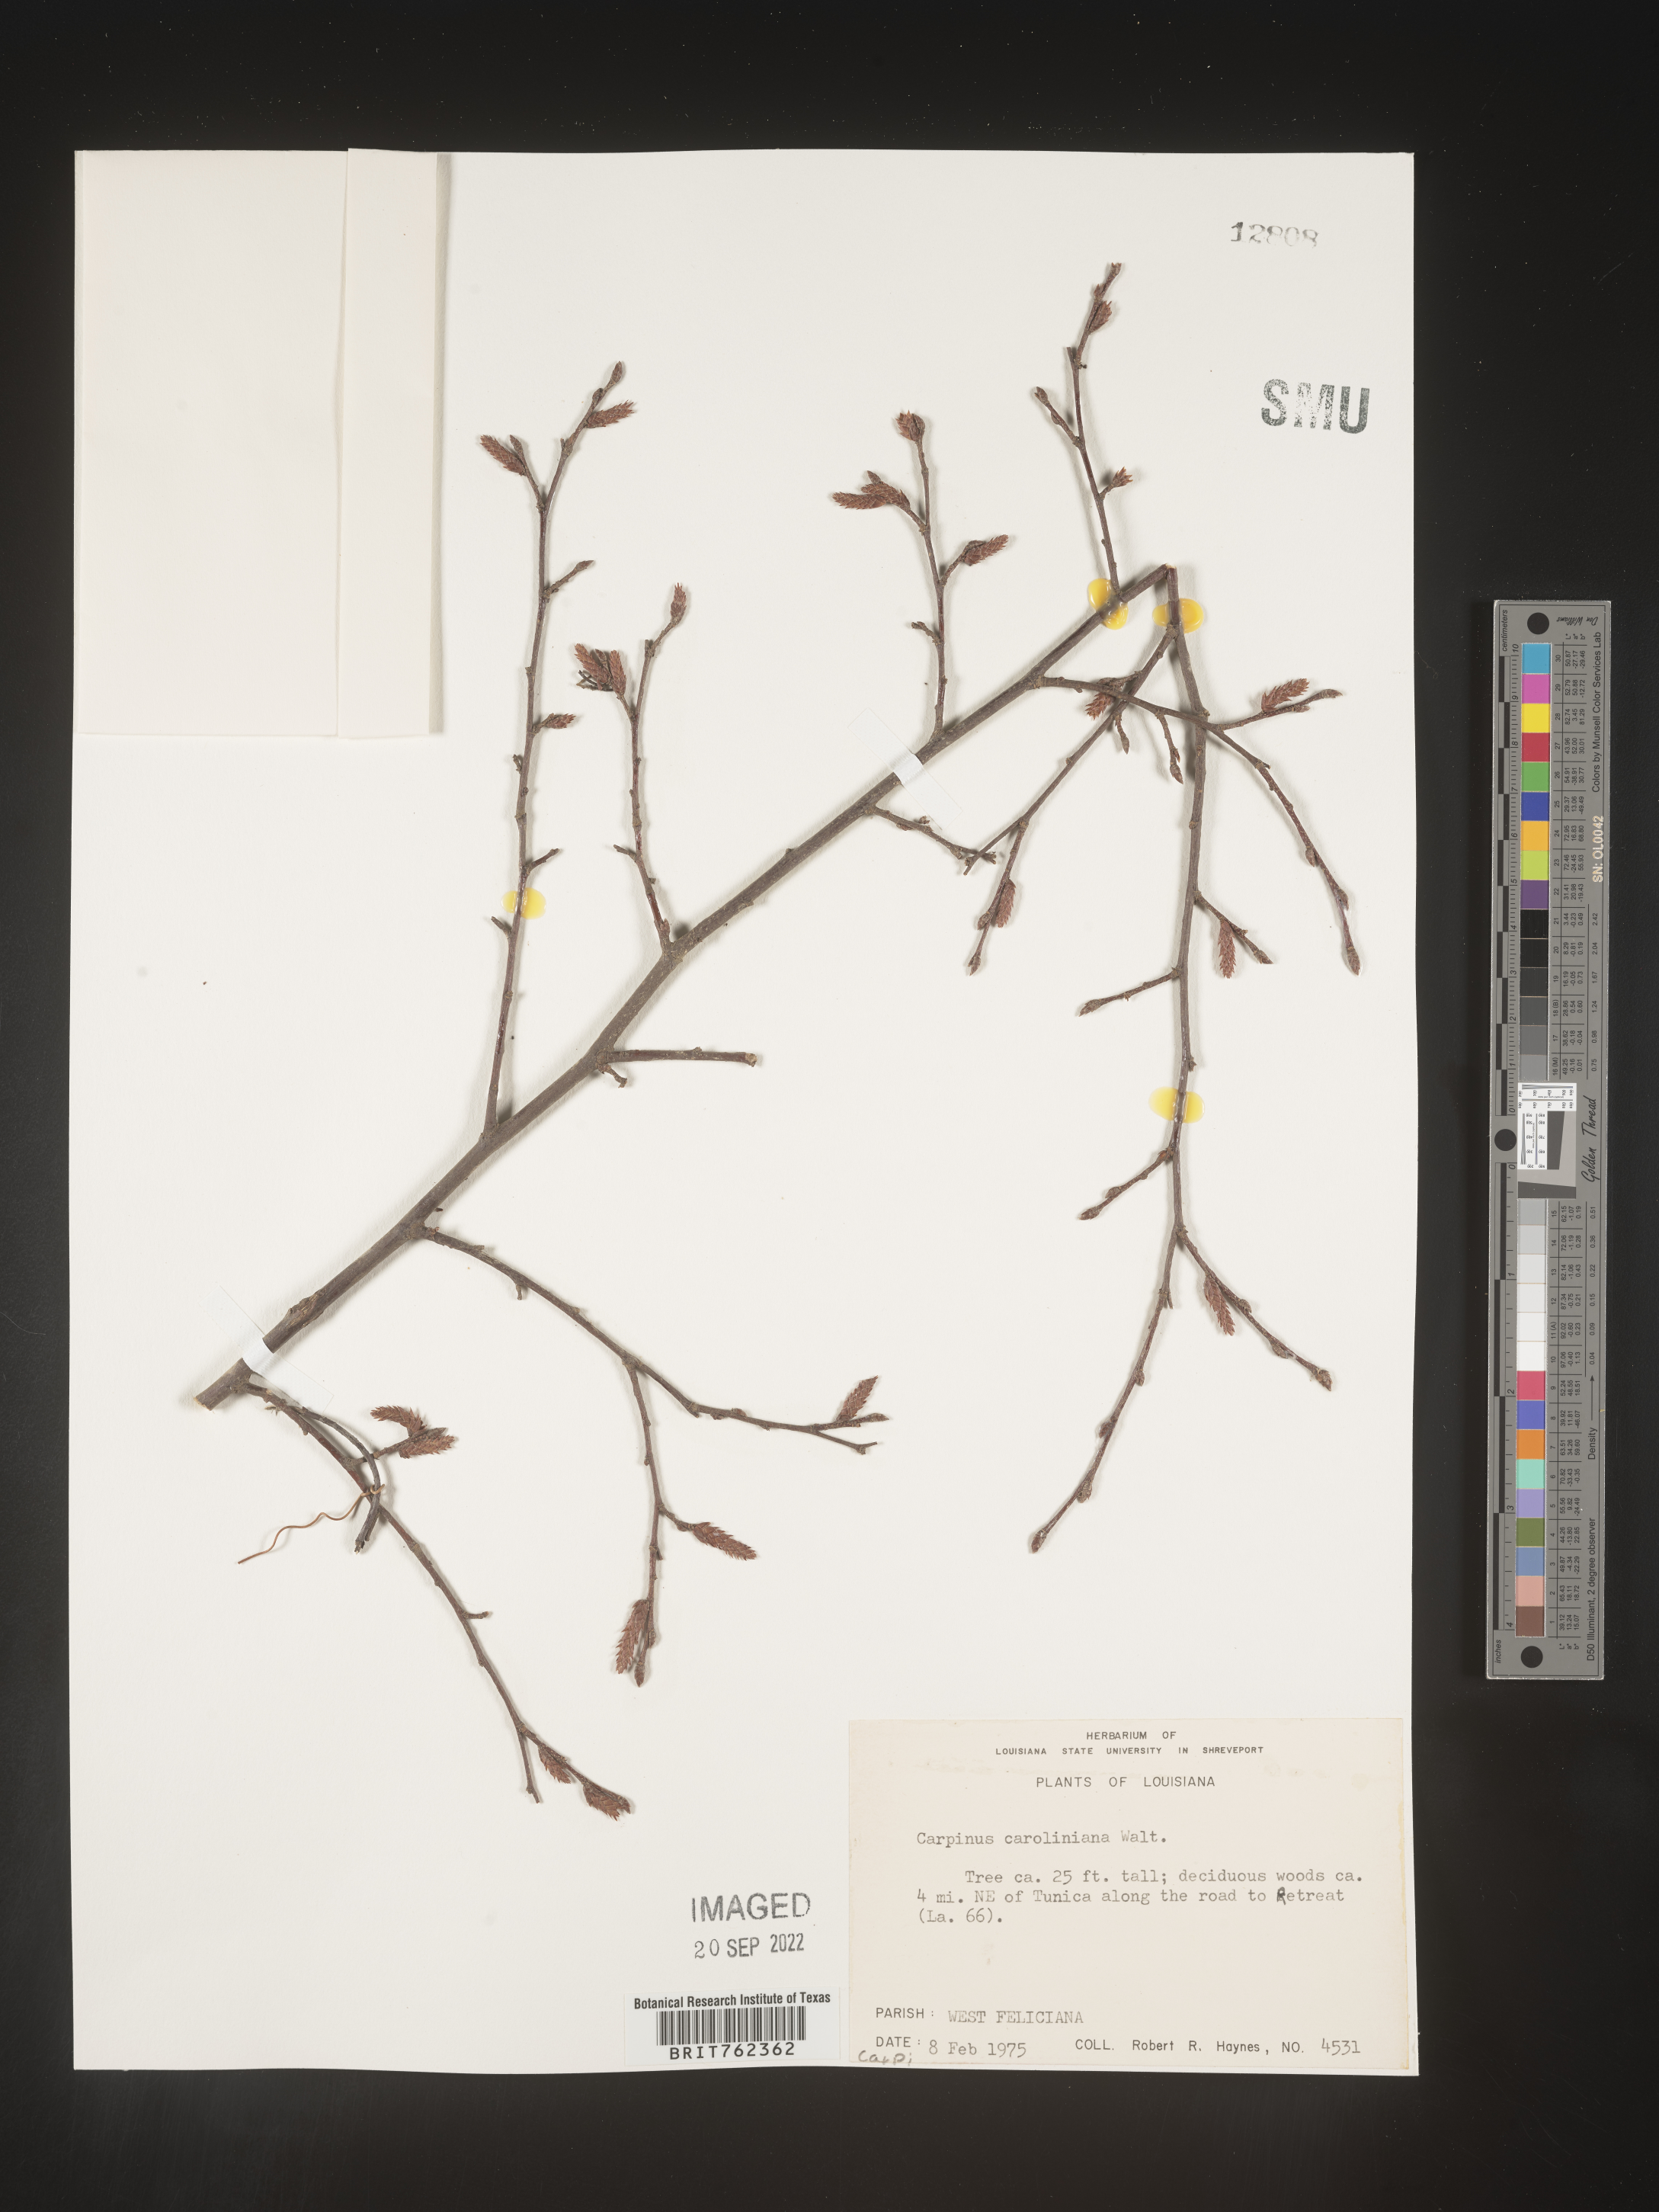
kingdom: Plantae
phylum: Tracheophyta
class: Magnoliopsida
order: Fagales
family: Betulaceae
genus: Carpinus
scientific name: Carpinus caroliniana
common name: American hornbeam
